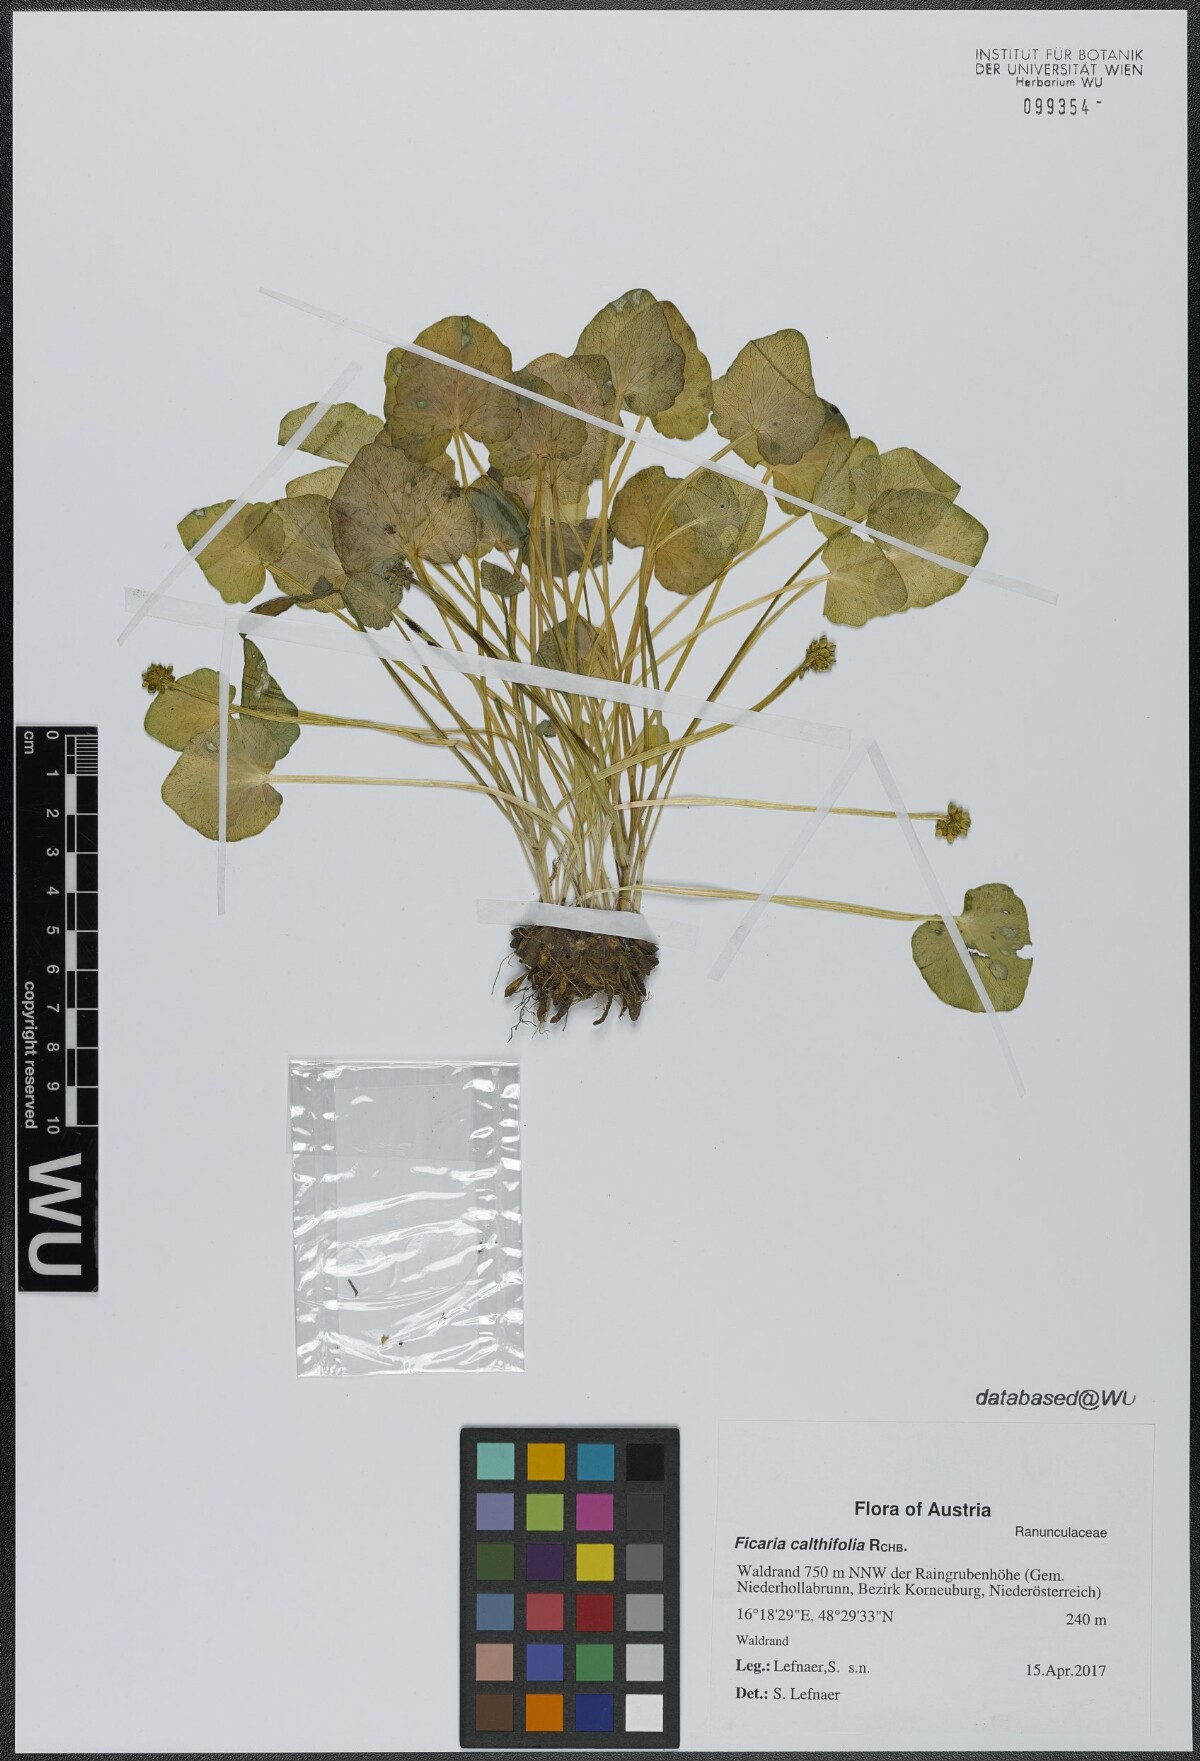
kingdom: Plantae
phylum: Tracheophyta
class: Magnoliopsida
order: Ranunculales
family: Ranunculaceae
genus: Ficaria
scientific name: Ficaria calthifolia
